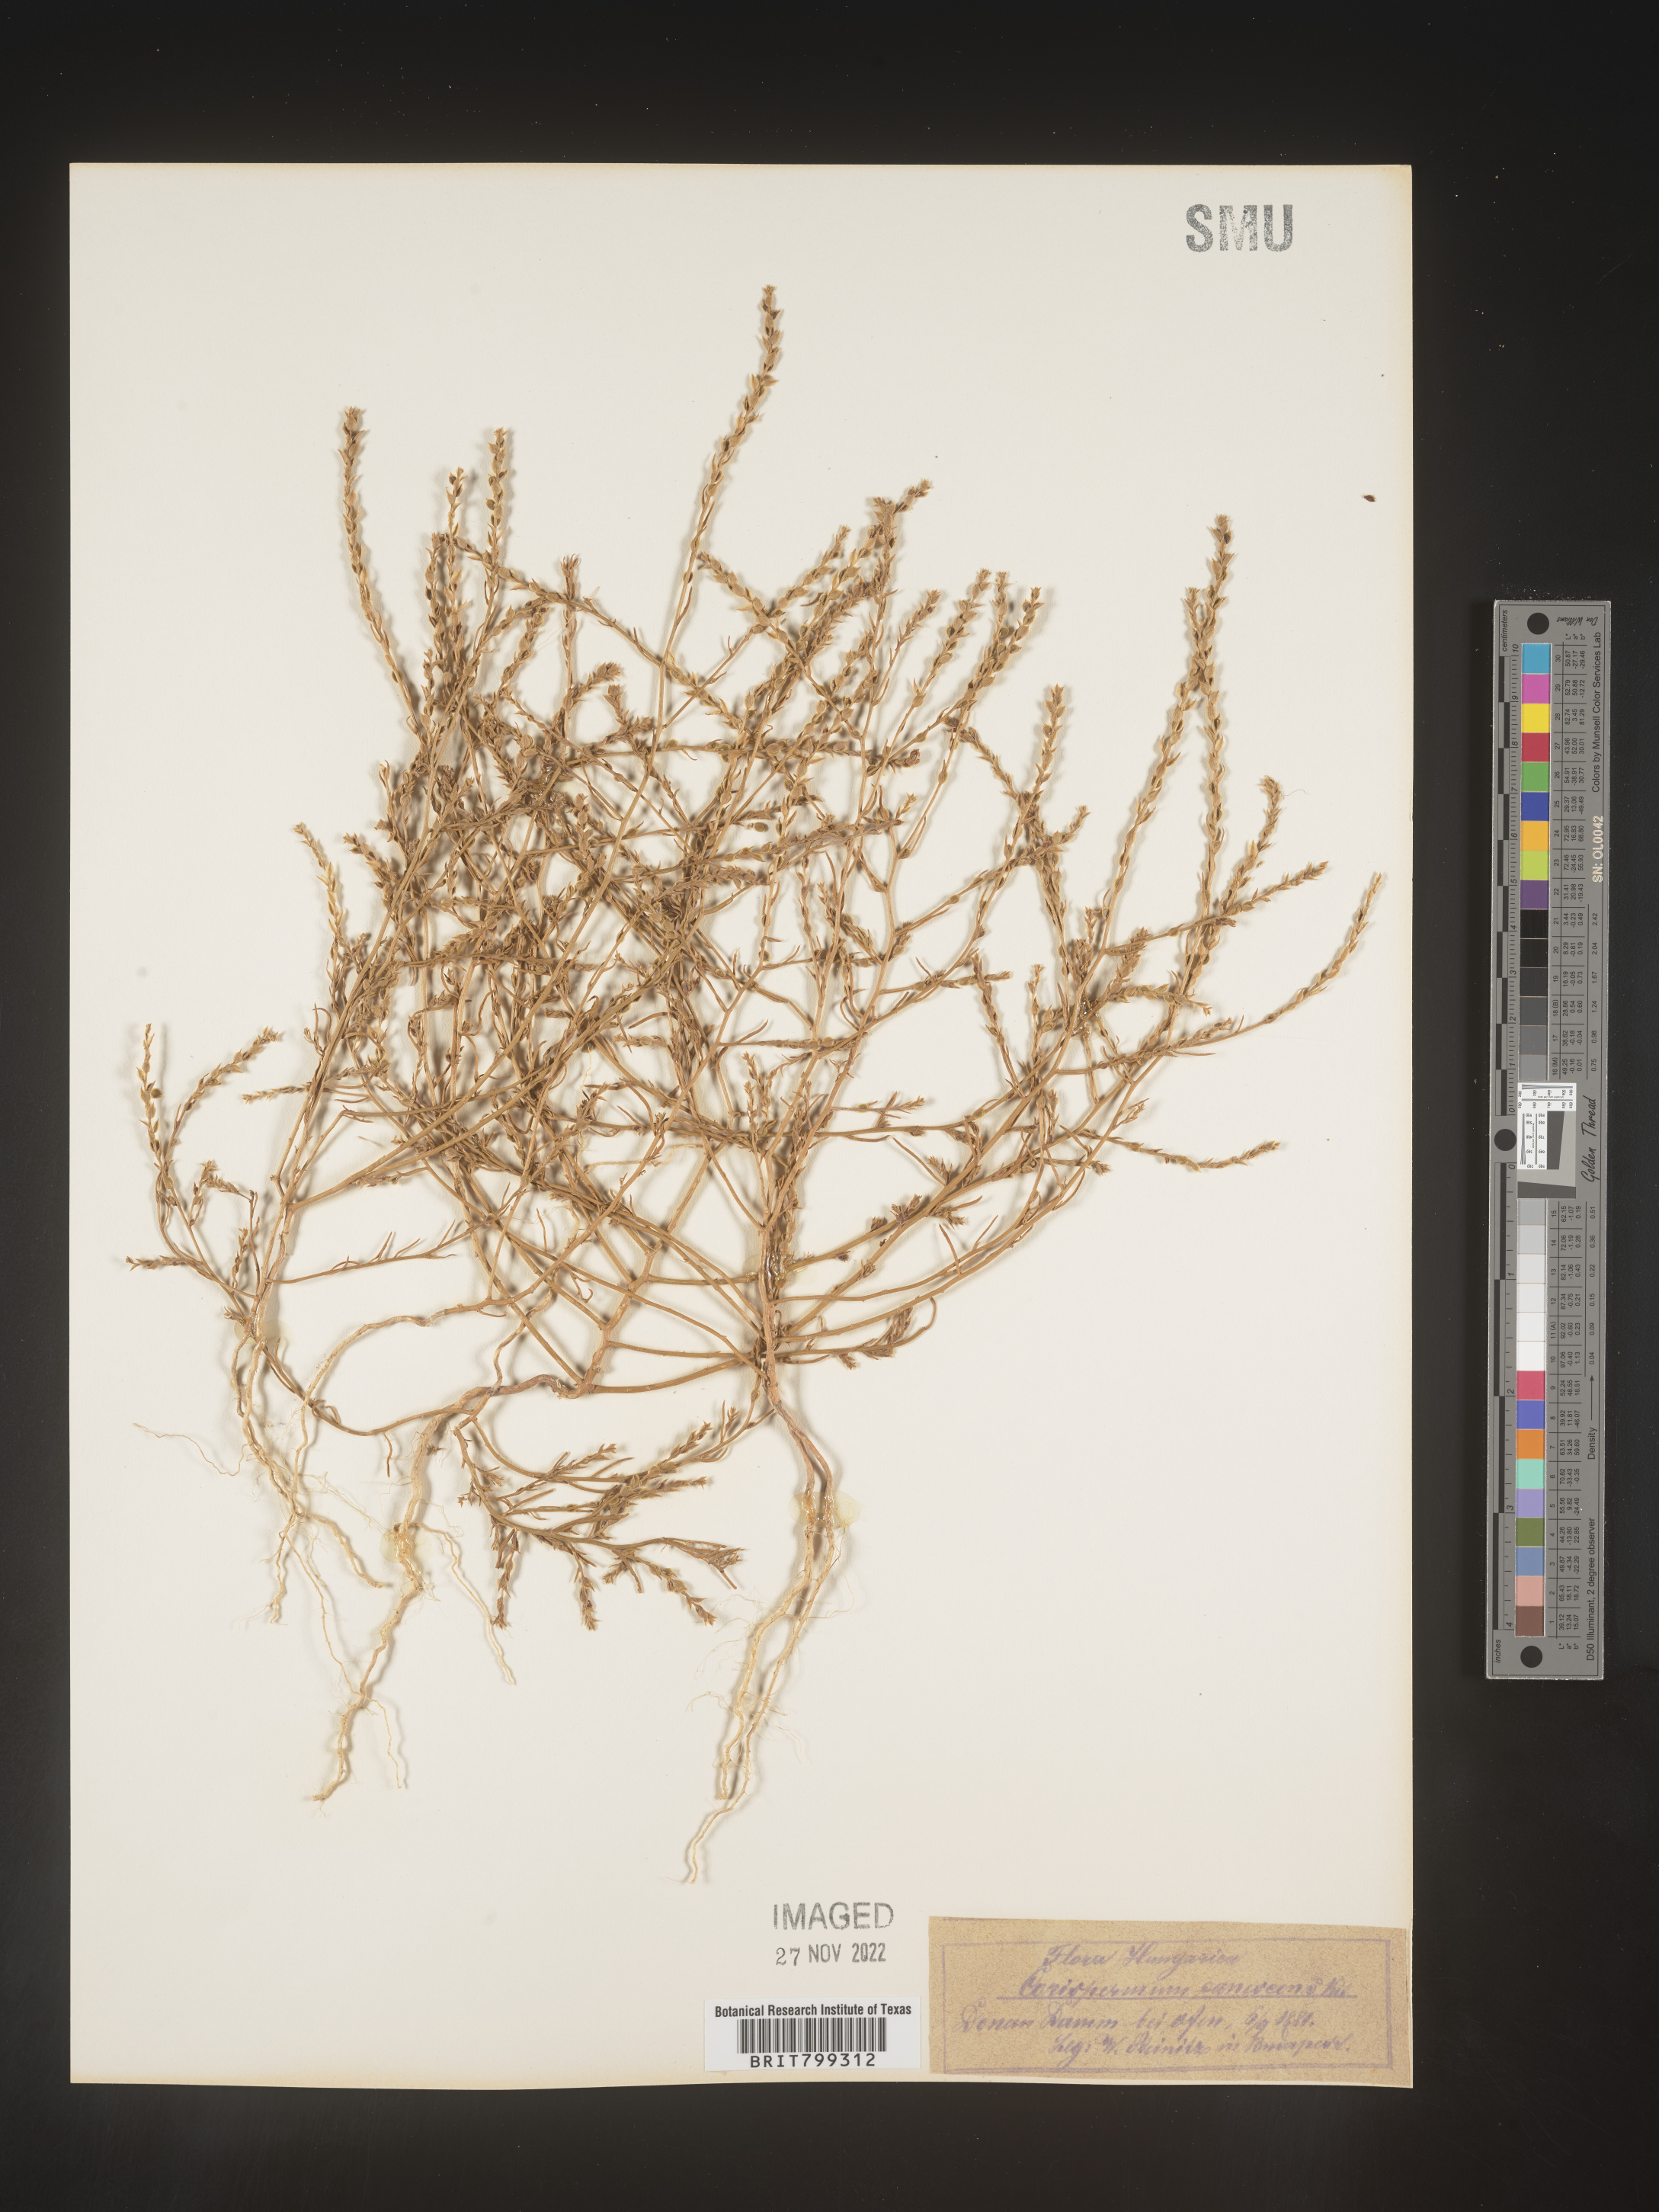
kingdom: Plantae
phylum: Tracheophyta
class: Magnoliopsida
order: Caryophyllales
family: Amaranthaceae
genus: Corispermum
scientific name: Corispermum
